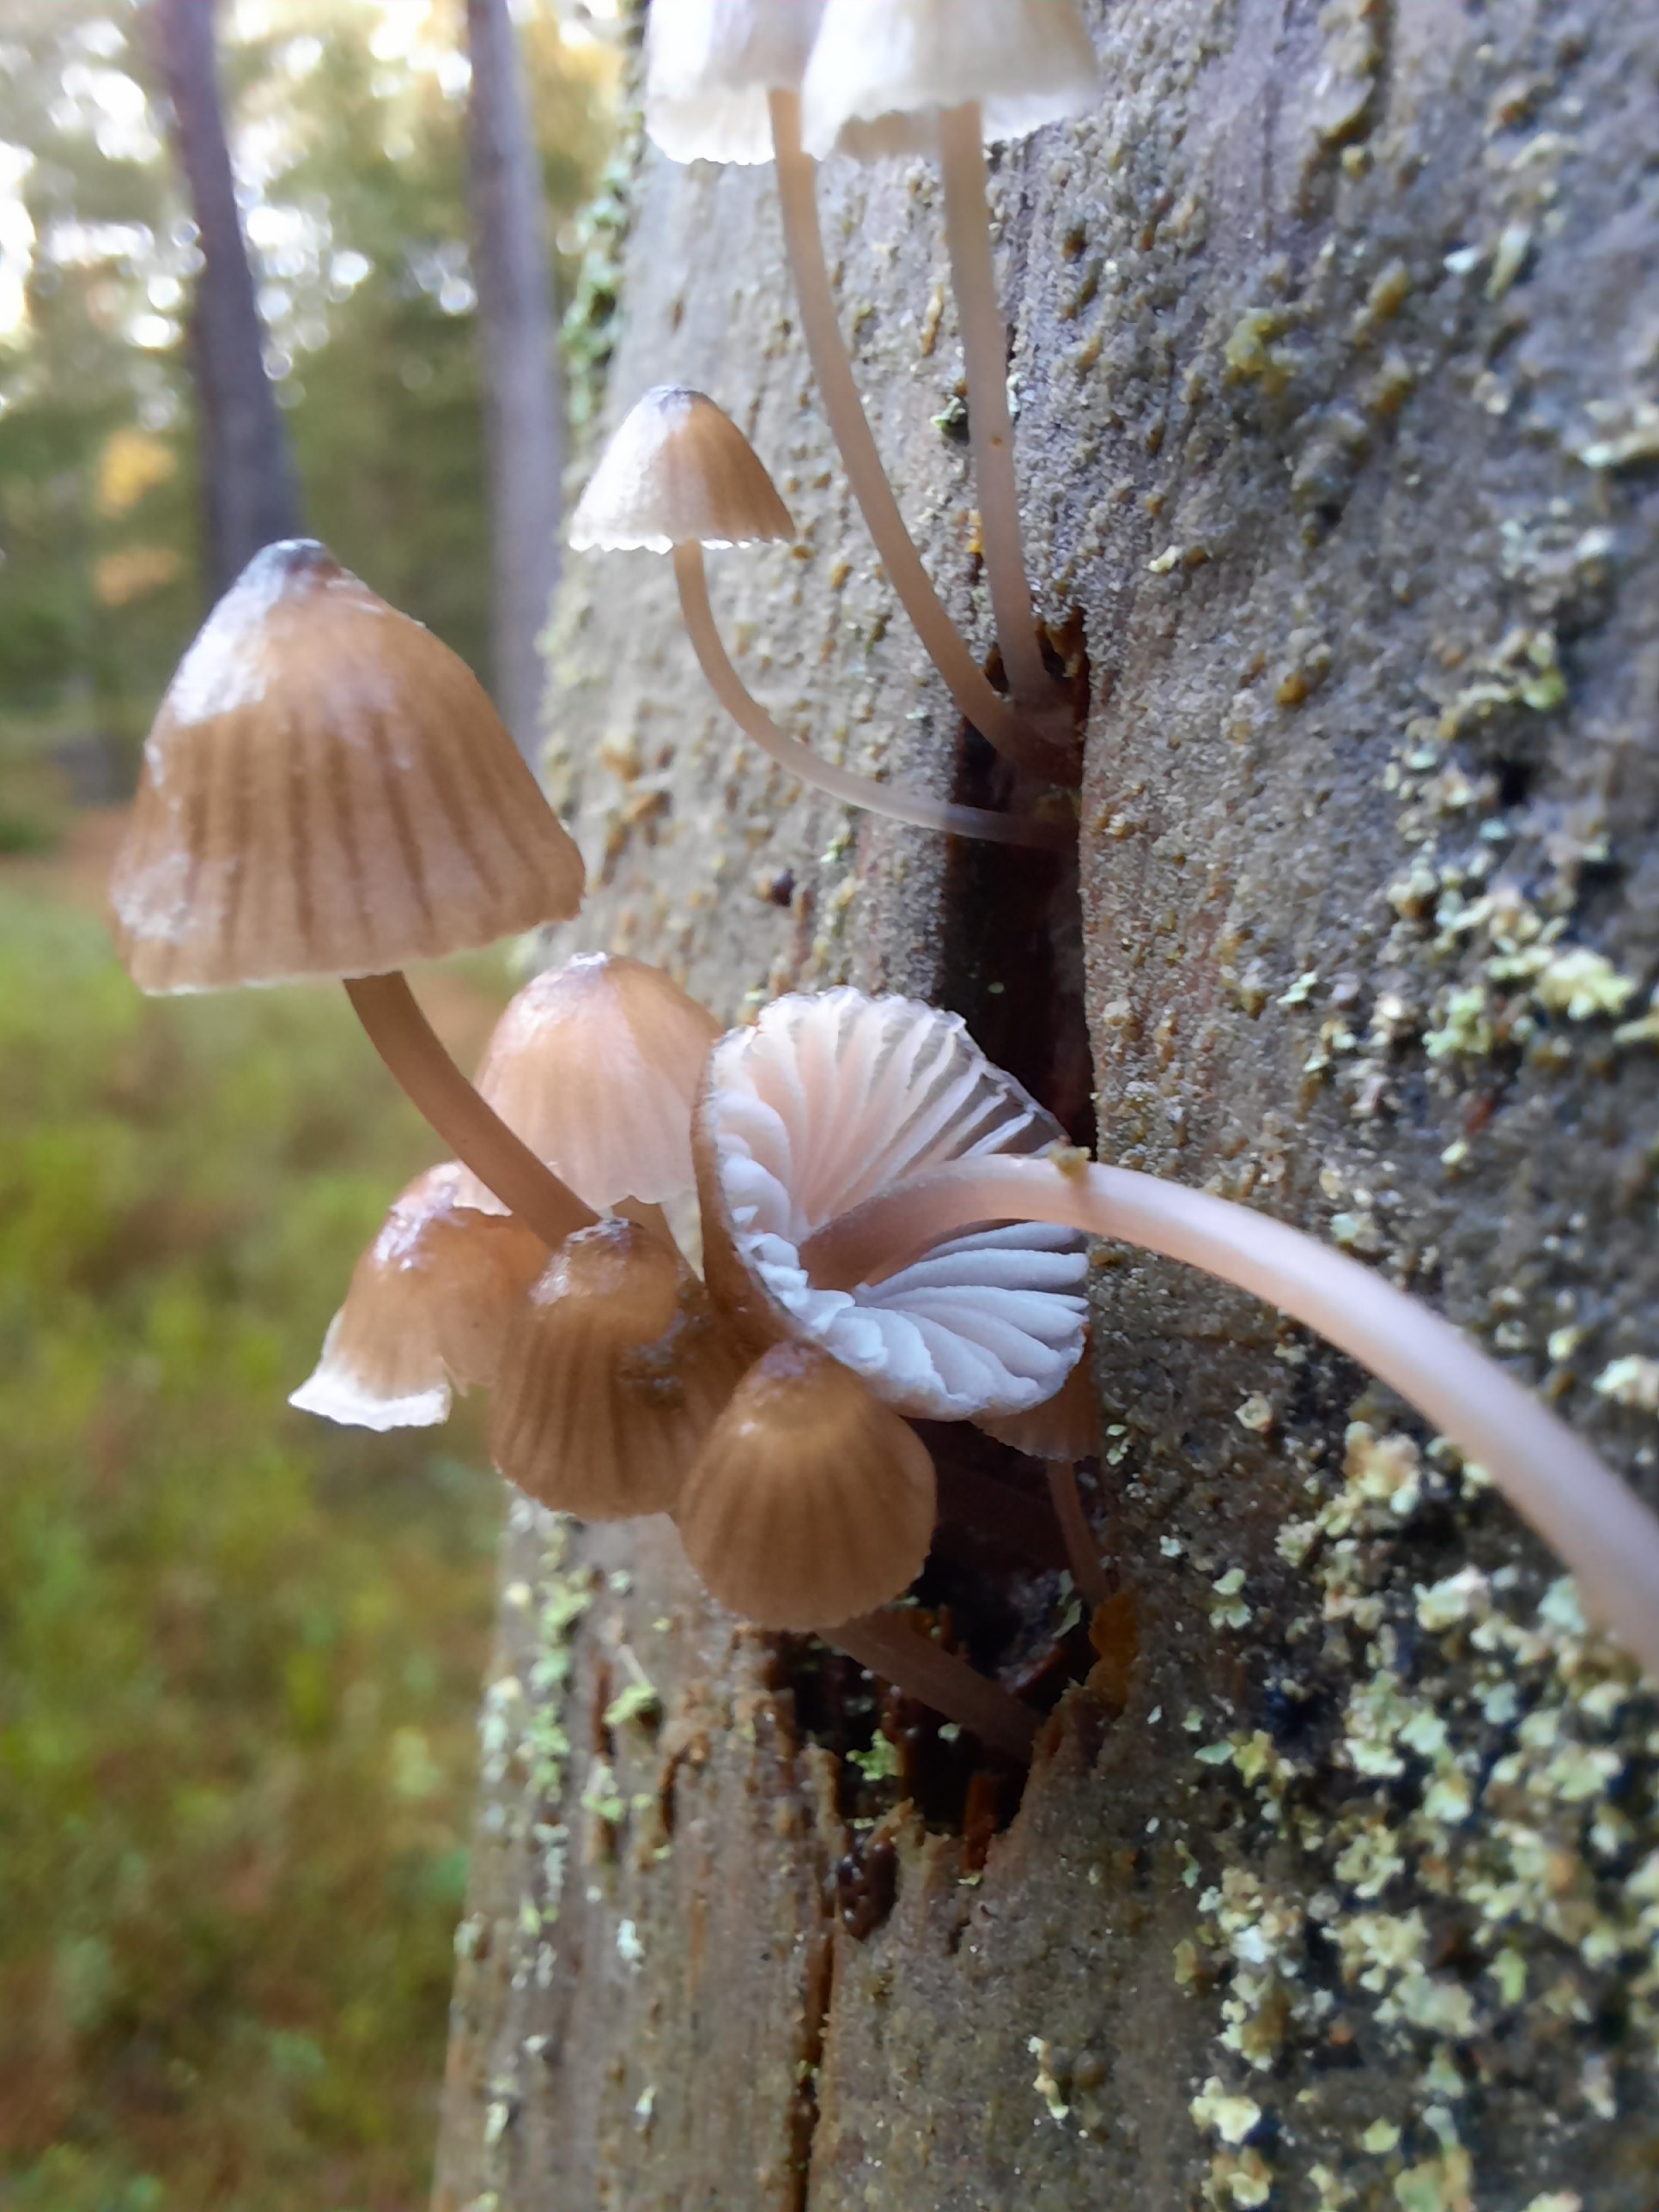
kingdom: Fungi
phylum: Basidiomycota
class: Agaricomycetes
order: Agaricales
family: Mycenaceae
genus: Mycena
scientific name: Mycena stipata
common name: stinkende huesvamp
